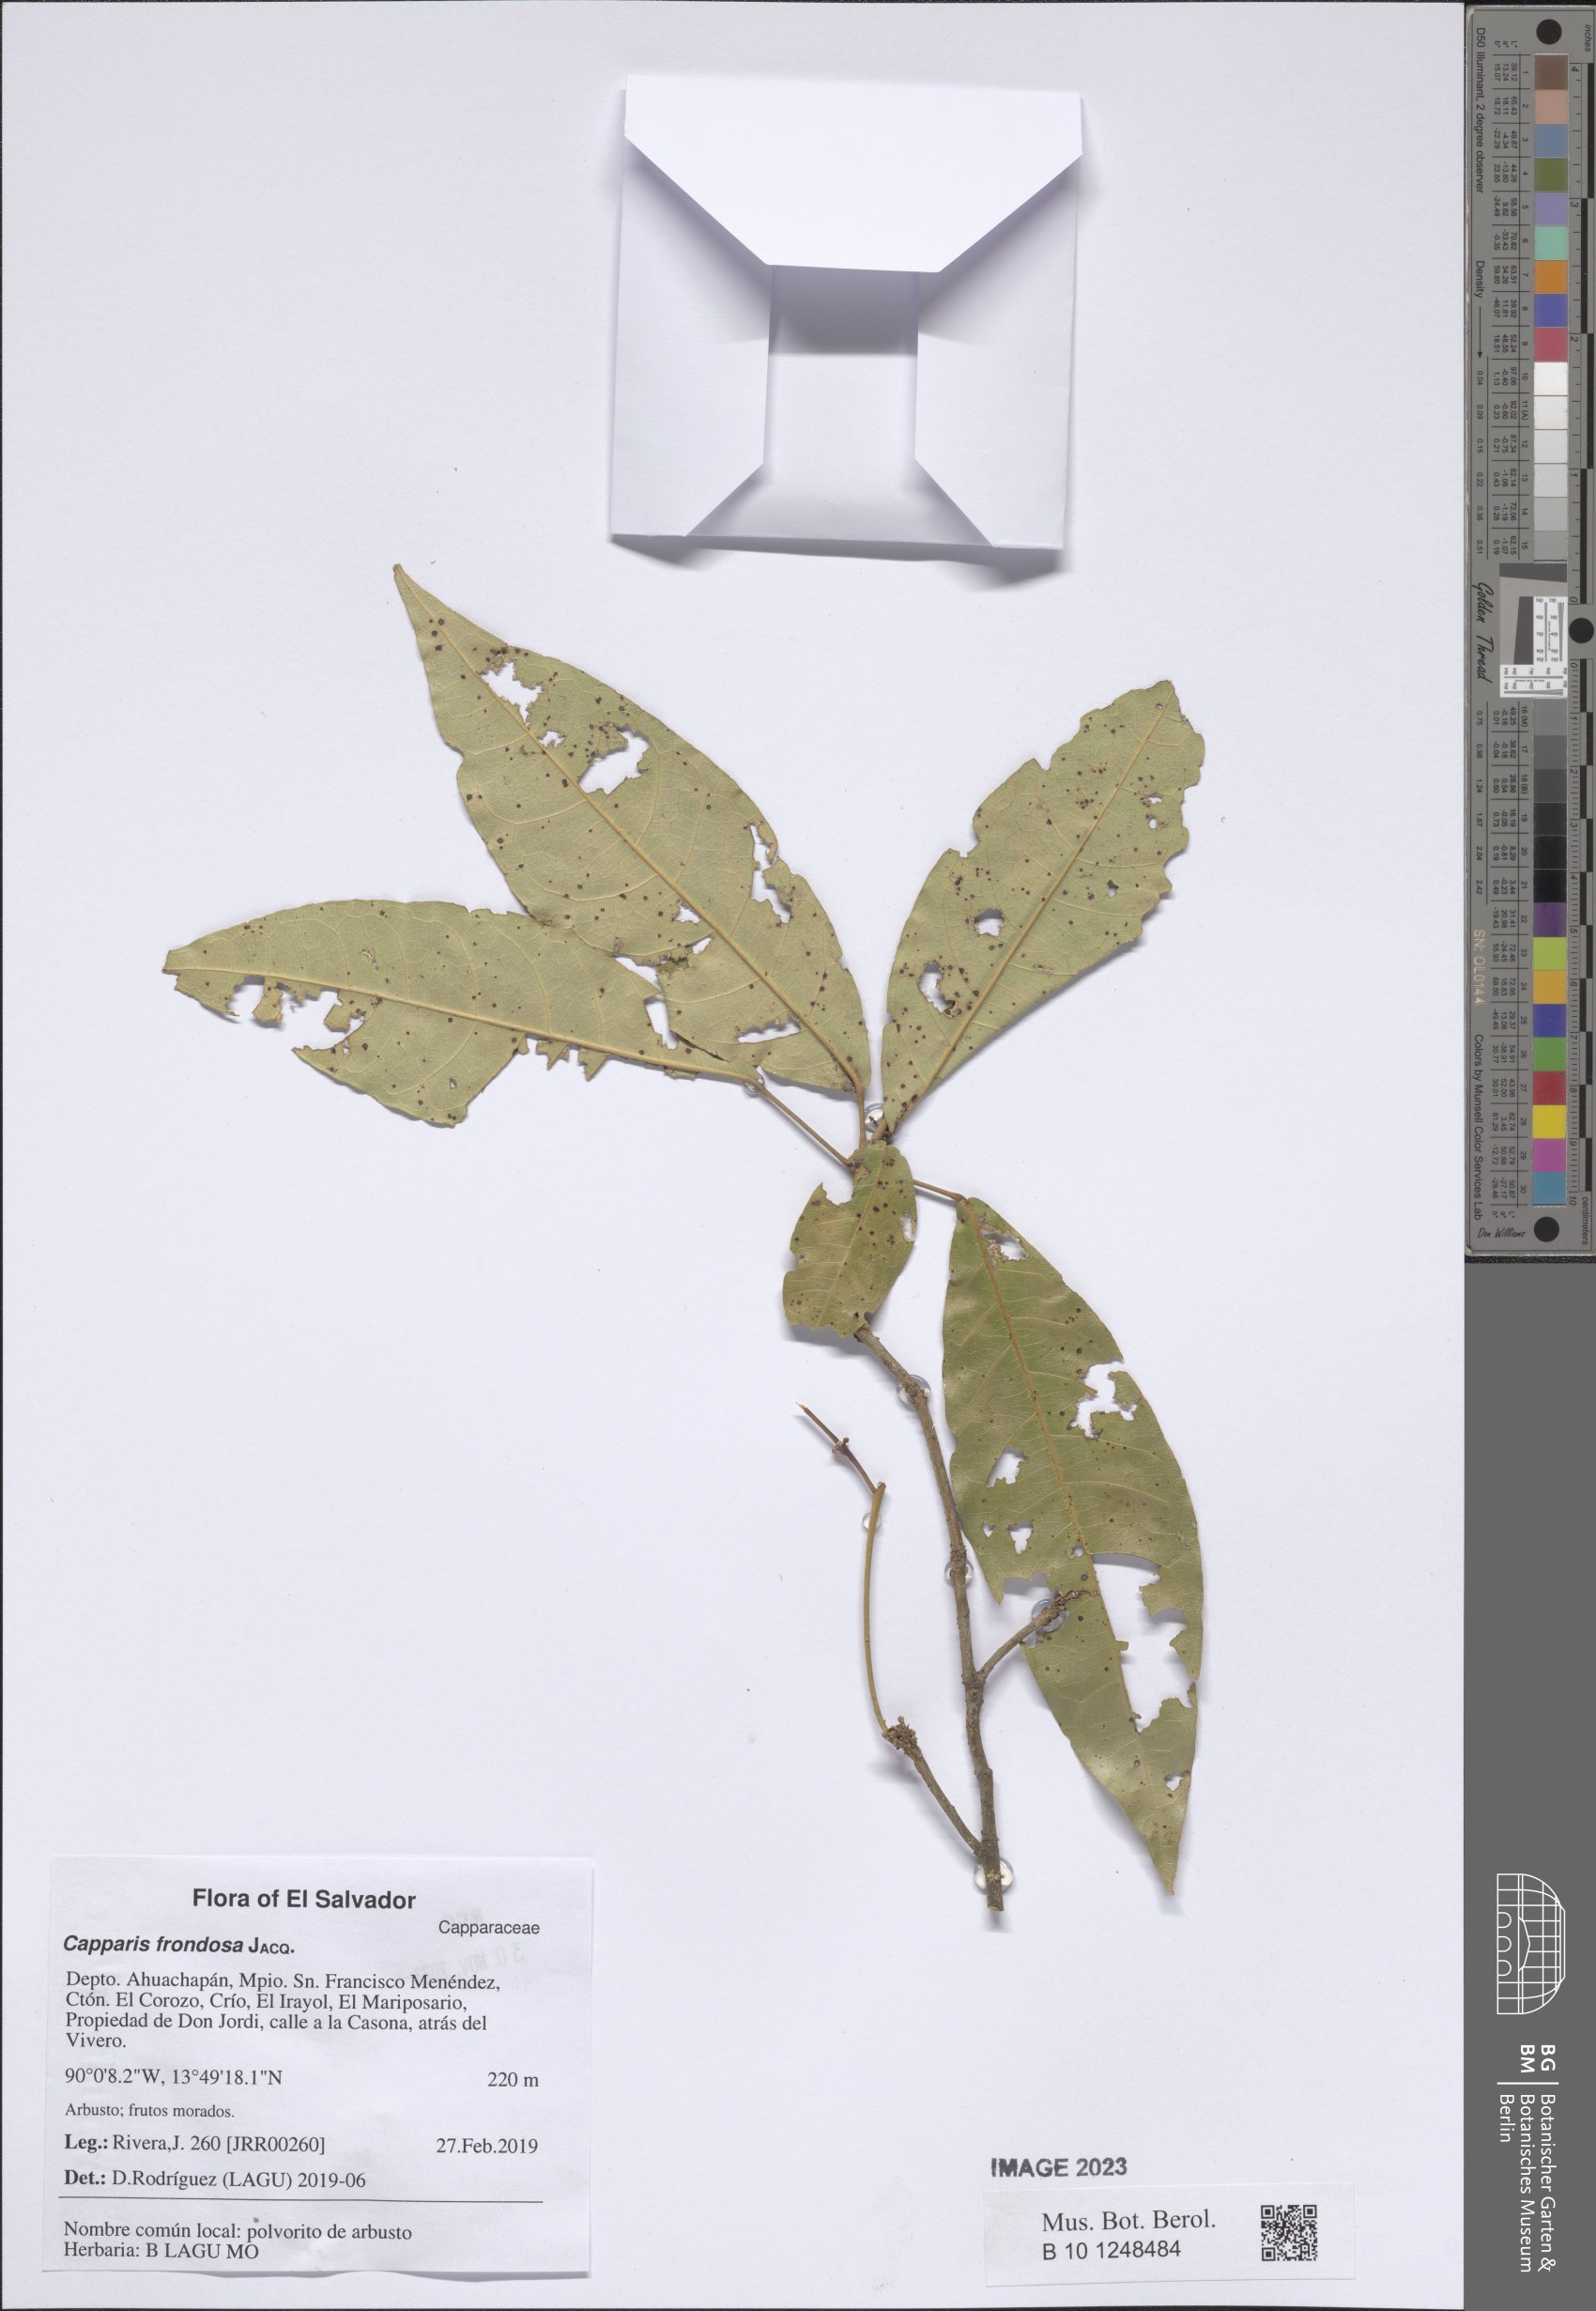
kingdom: Plantae
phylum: Tracheophyta
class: Magnoliopsida
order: Brassicales
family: Capparaceae
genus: Capparidastrum
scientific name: Capparidastrum frondosum
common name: Church blossom
